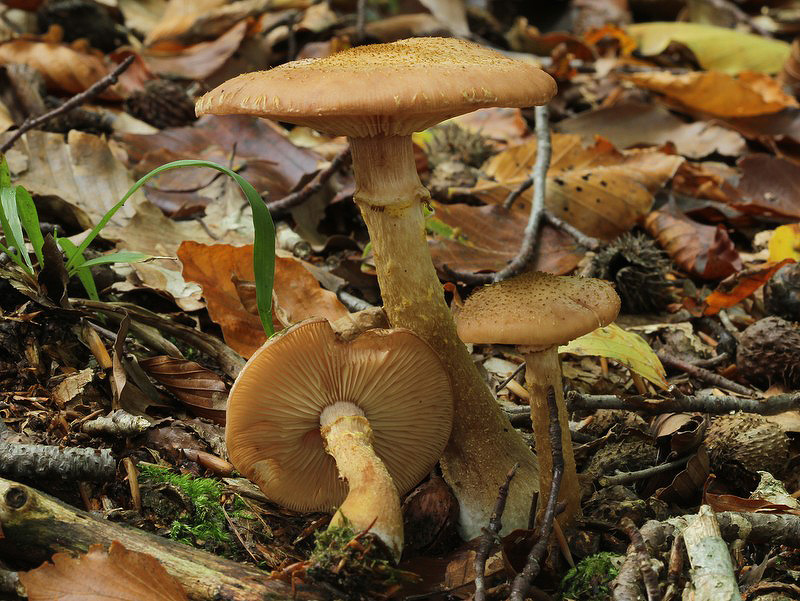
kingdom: Fungi
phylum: Basidiomycota
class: Agaricomycetes
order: Agaricales
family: Physalacriaceae
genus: Armillaria
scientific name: Armillaria lutea
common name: køllestokket honningsvamp
